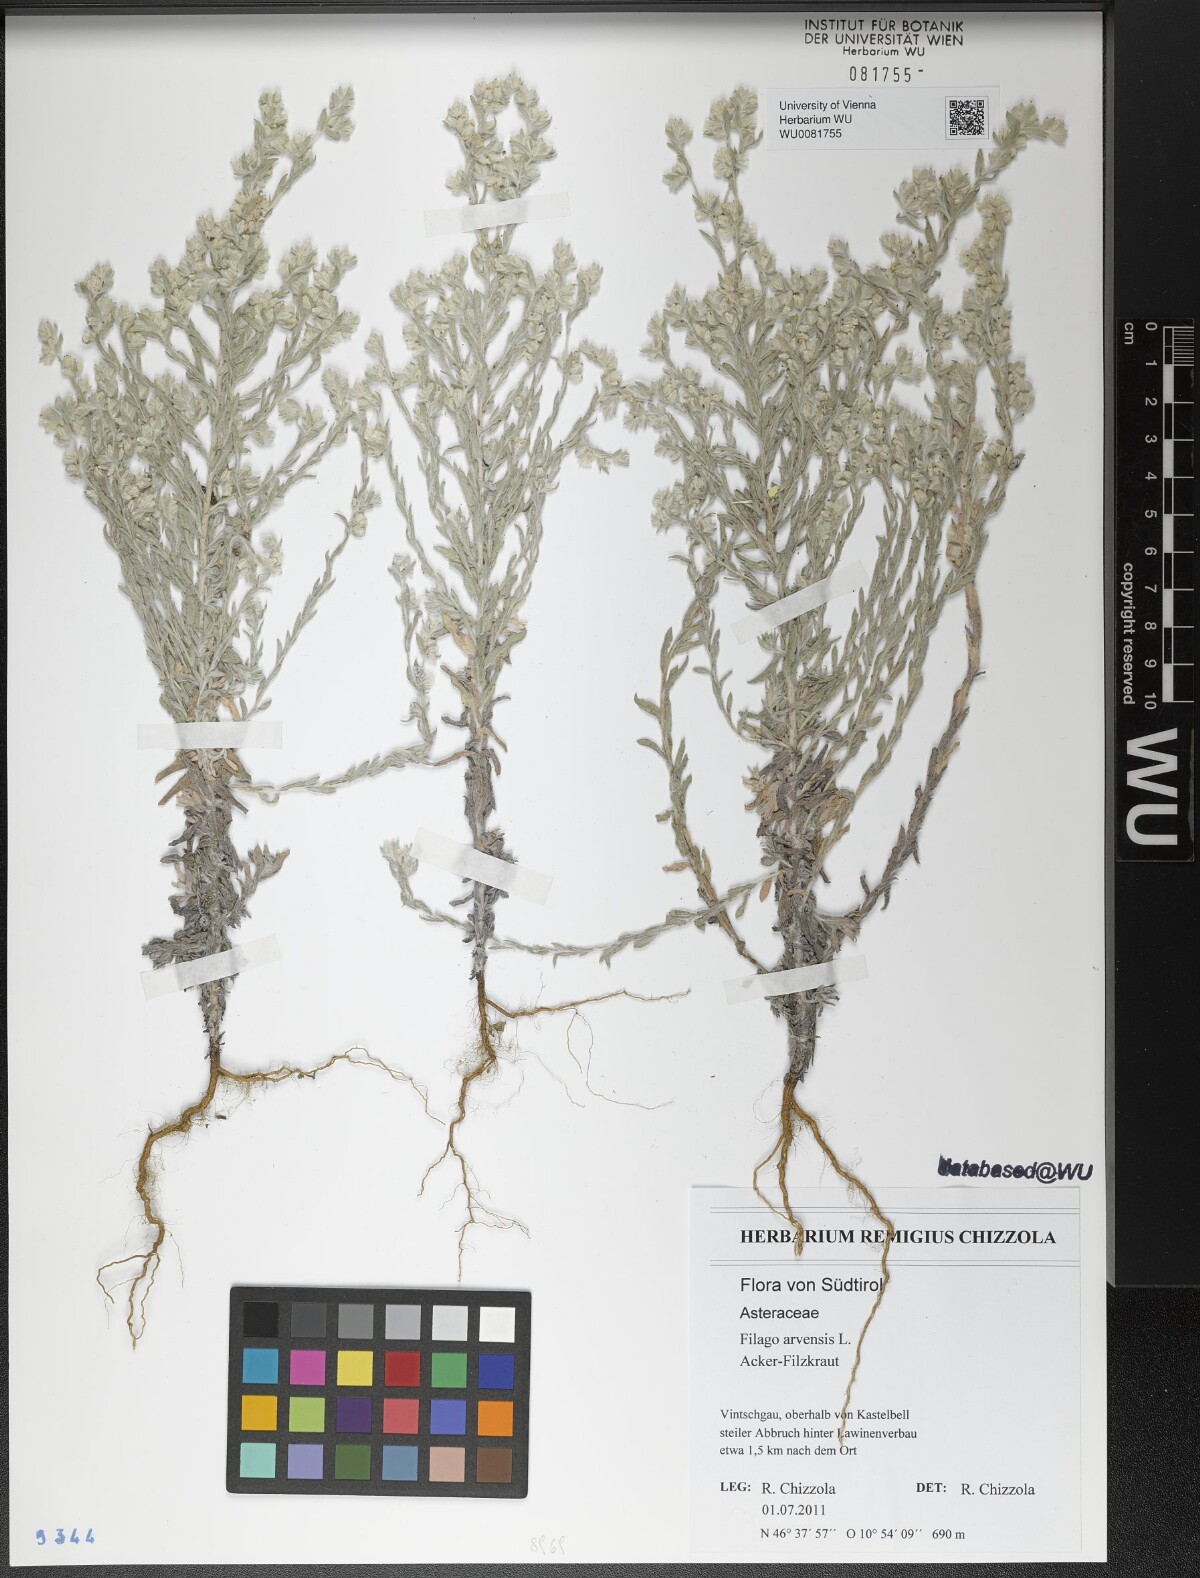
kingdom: Plantae
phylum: Tracheophyta
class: Magnoliopsida
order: Asterales
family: Asteraceae
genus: Filago
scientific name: Filago arvensis
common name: Field cudweed
